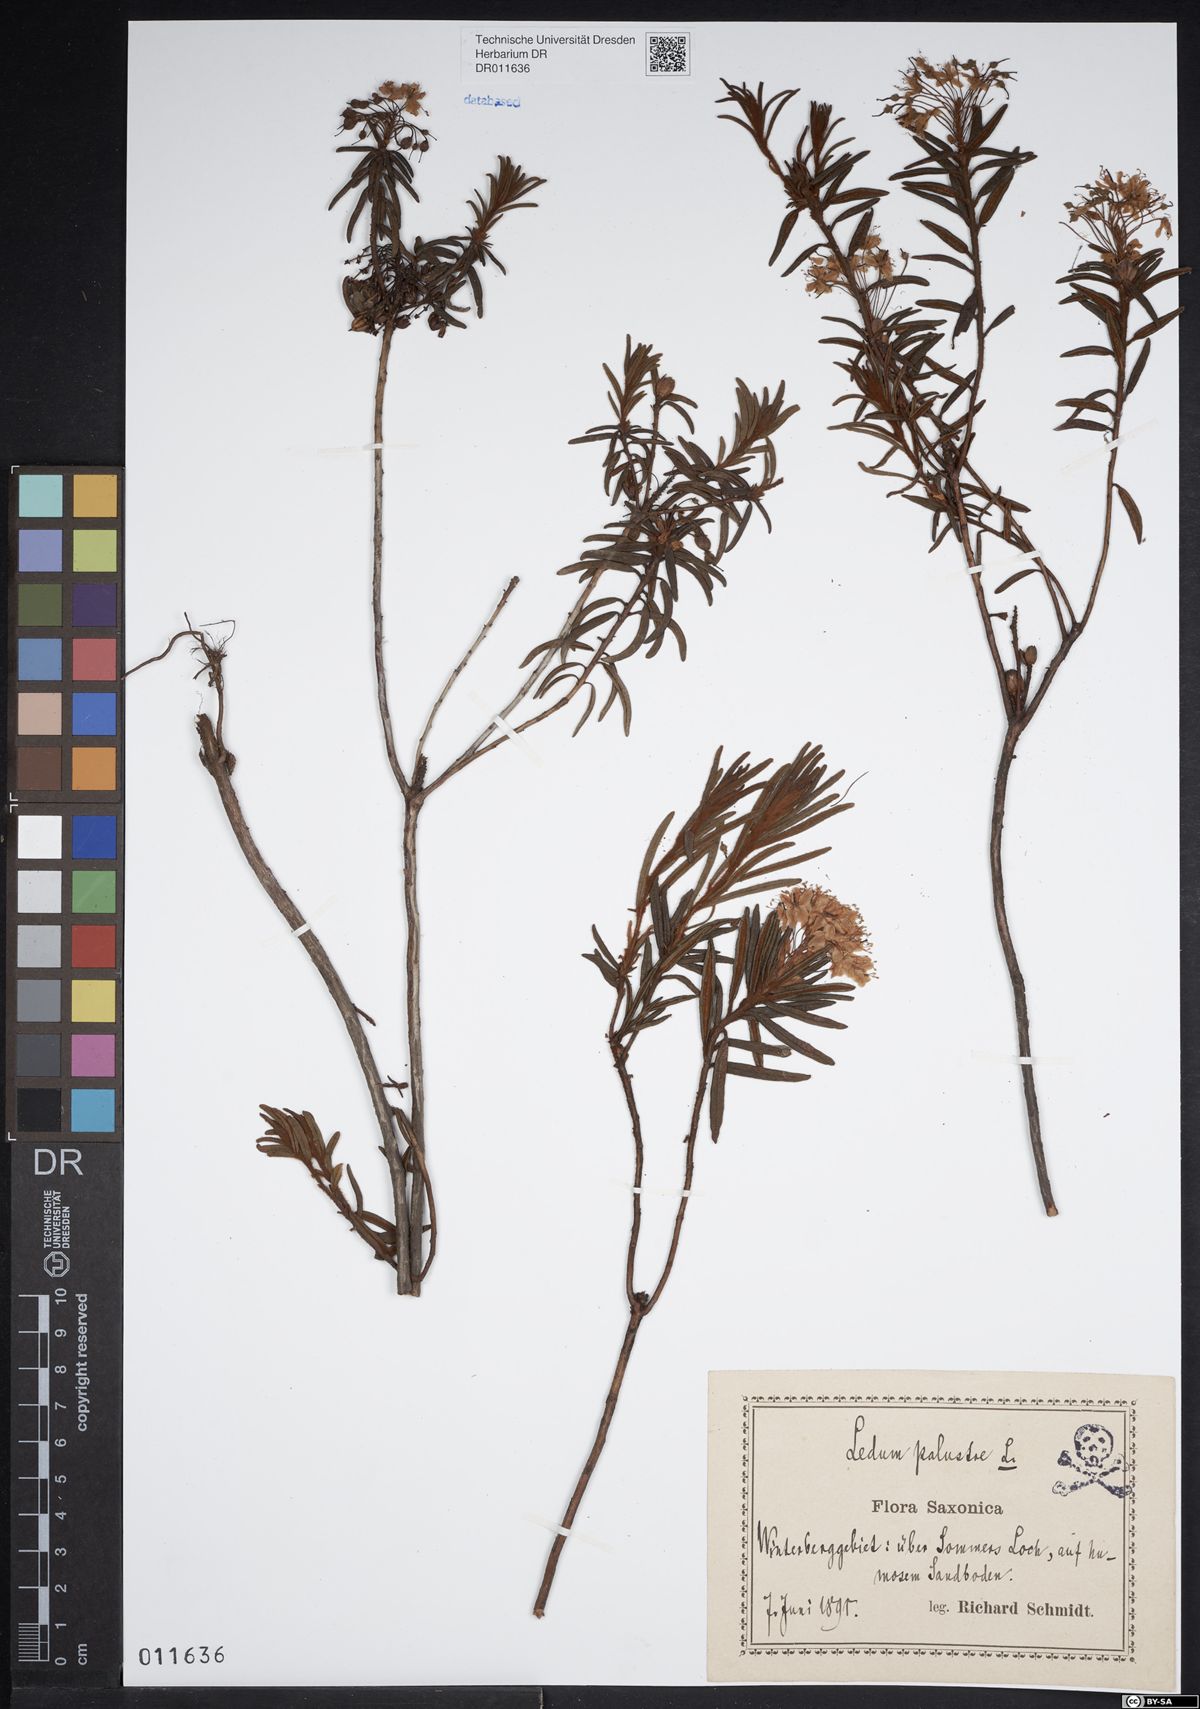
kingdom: Plantae
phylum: Tracheophyta
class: Magnoliopsida
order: Ericales
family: Ericaceae
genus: Rhododendron
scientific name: Rhododendron tomentosum
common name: Marsh labrador tea
